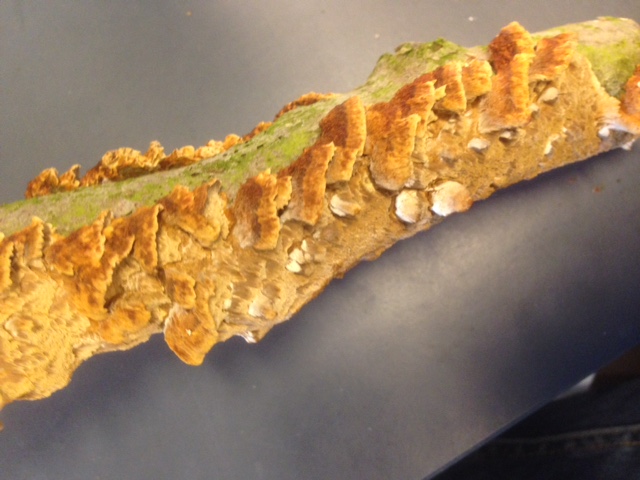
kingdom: Fungi
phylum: Basidiomycota
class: Agaricomycetes
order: Hymenochaetales
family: Hymenochaetaceae
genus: Mensularia
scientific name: Mensularia nodulosa
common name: bøge-spejlporesvamp
